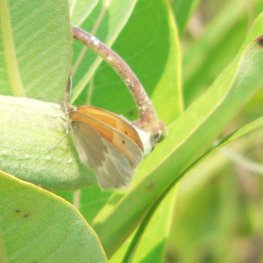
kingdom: Animalia
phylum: Arthropoda
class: Insecta
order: Lepidoptera
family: Nymphalidae
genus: Coenonympha
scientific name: Coenonympha tullia
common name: Large Heath
